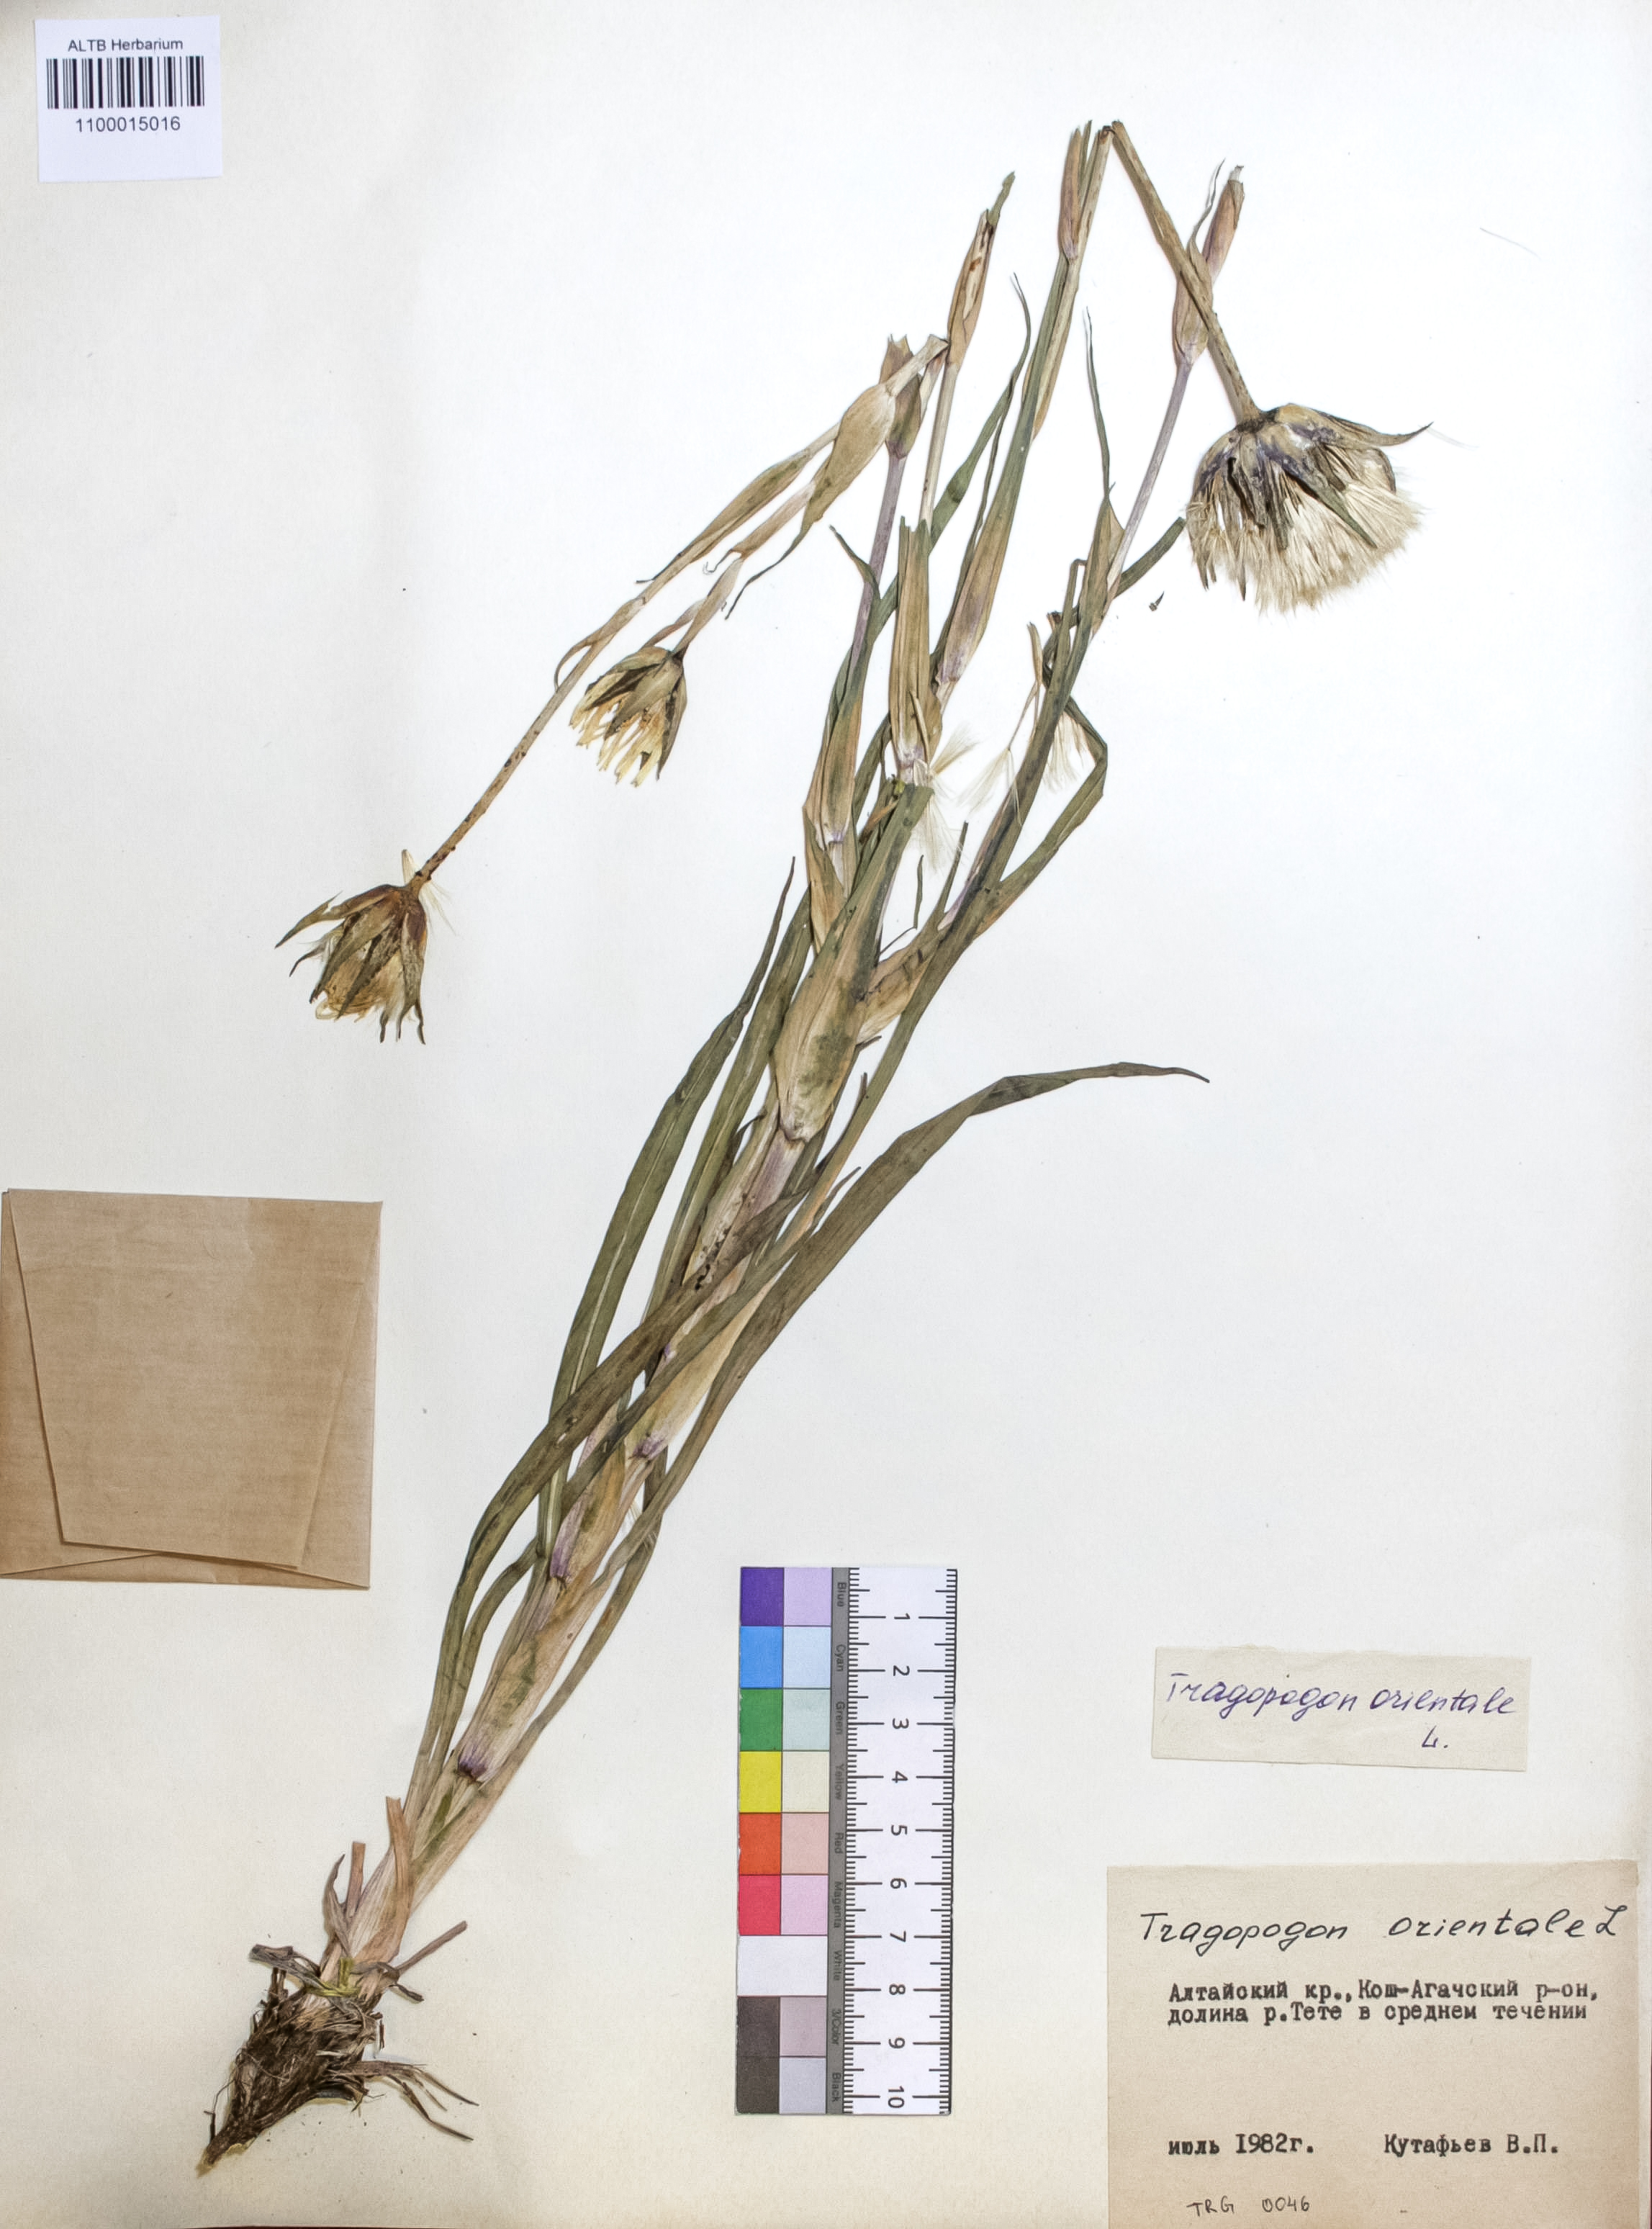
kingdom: Plantae
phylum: Tracheophyta
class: Magnoliopsida
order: Asterales
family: Asteraceae
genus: Tragopogon
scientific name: Tragopogon orientalis
